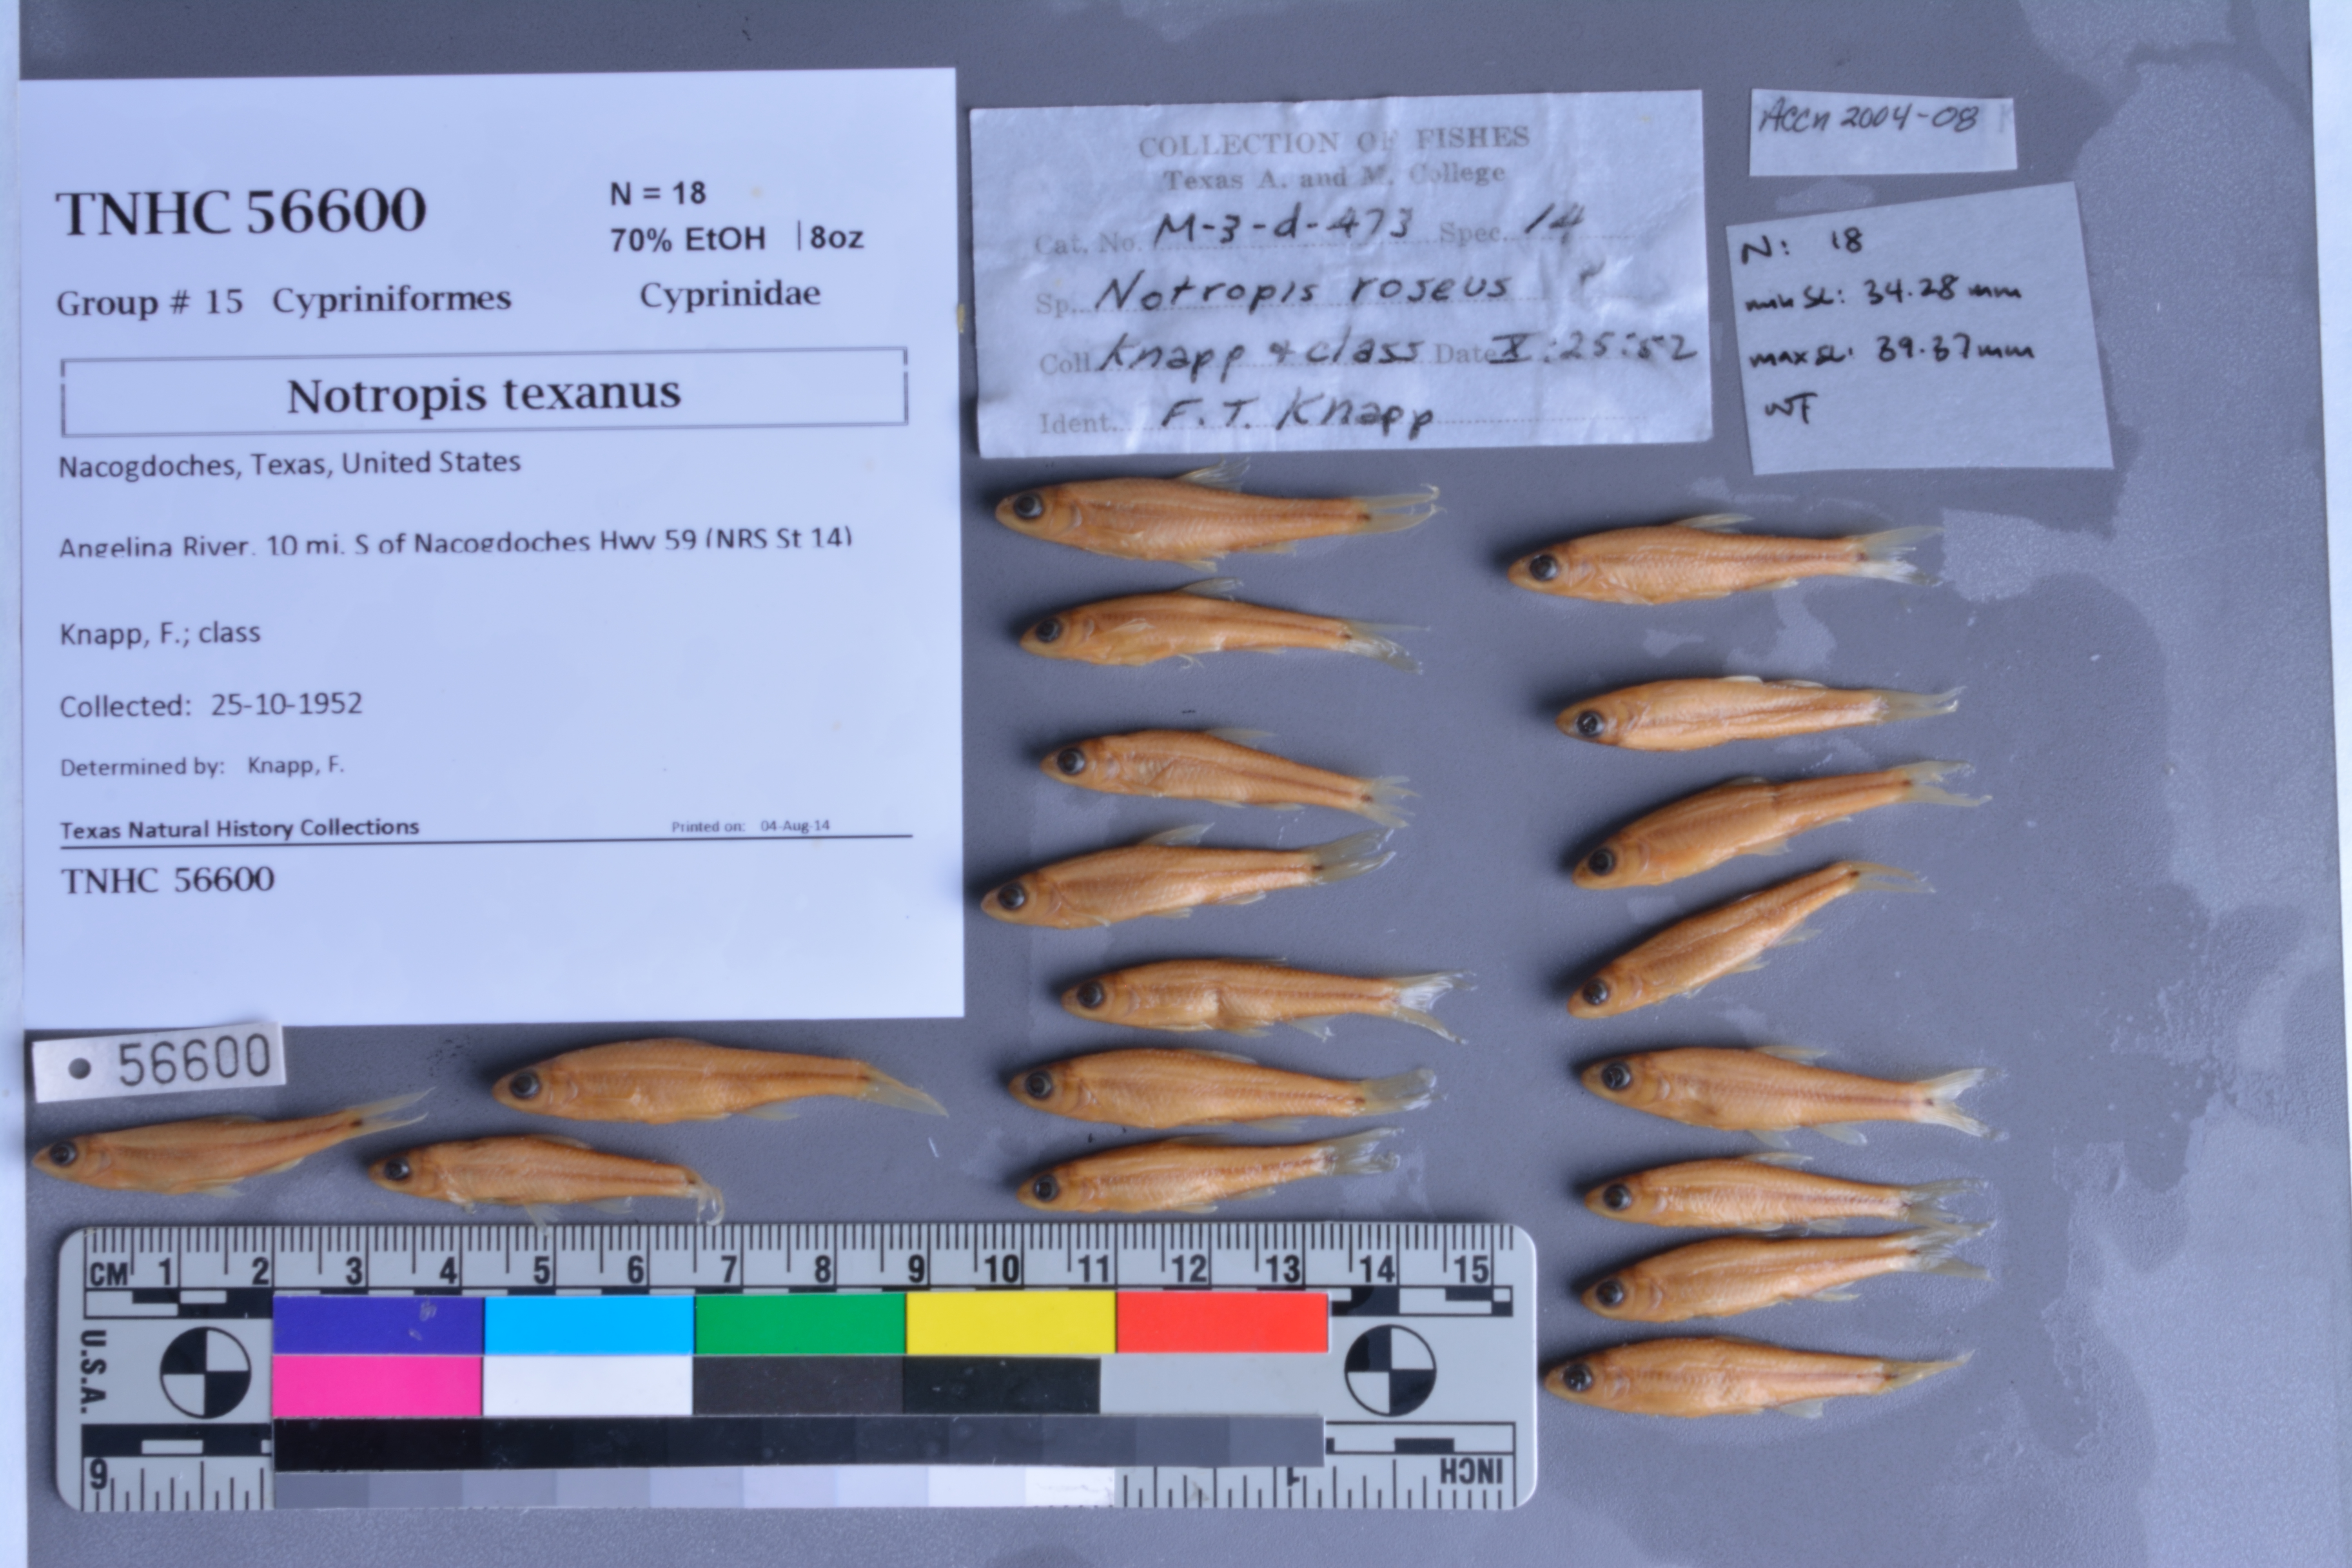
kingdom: Animalia
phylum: Chordata
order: Cyprinodontiformes
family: Poeciliidae
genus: Gambusia
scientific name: Gambusia affinis
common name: Mosquitofish
